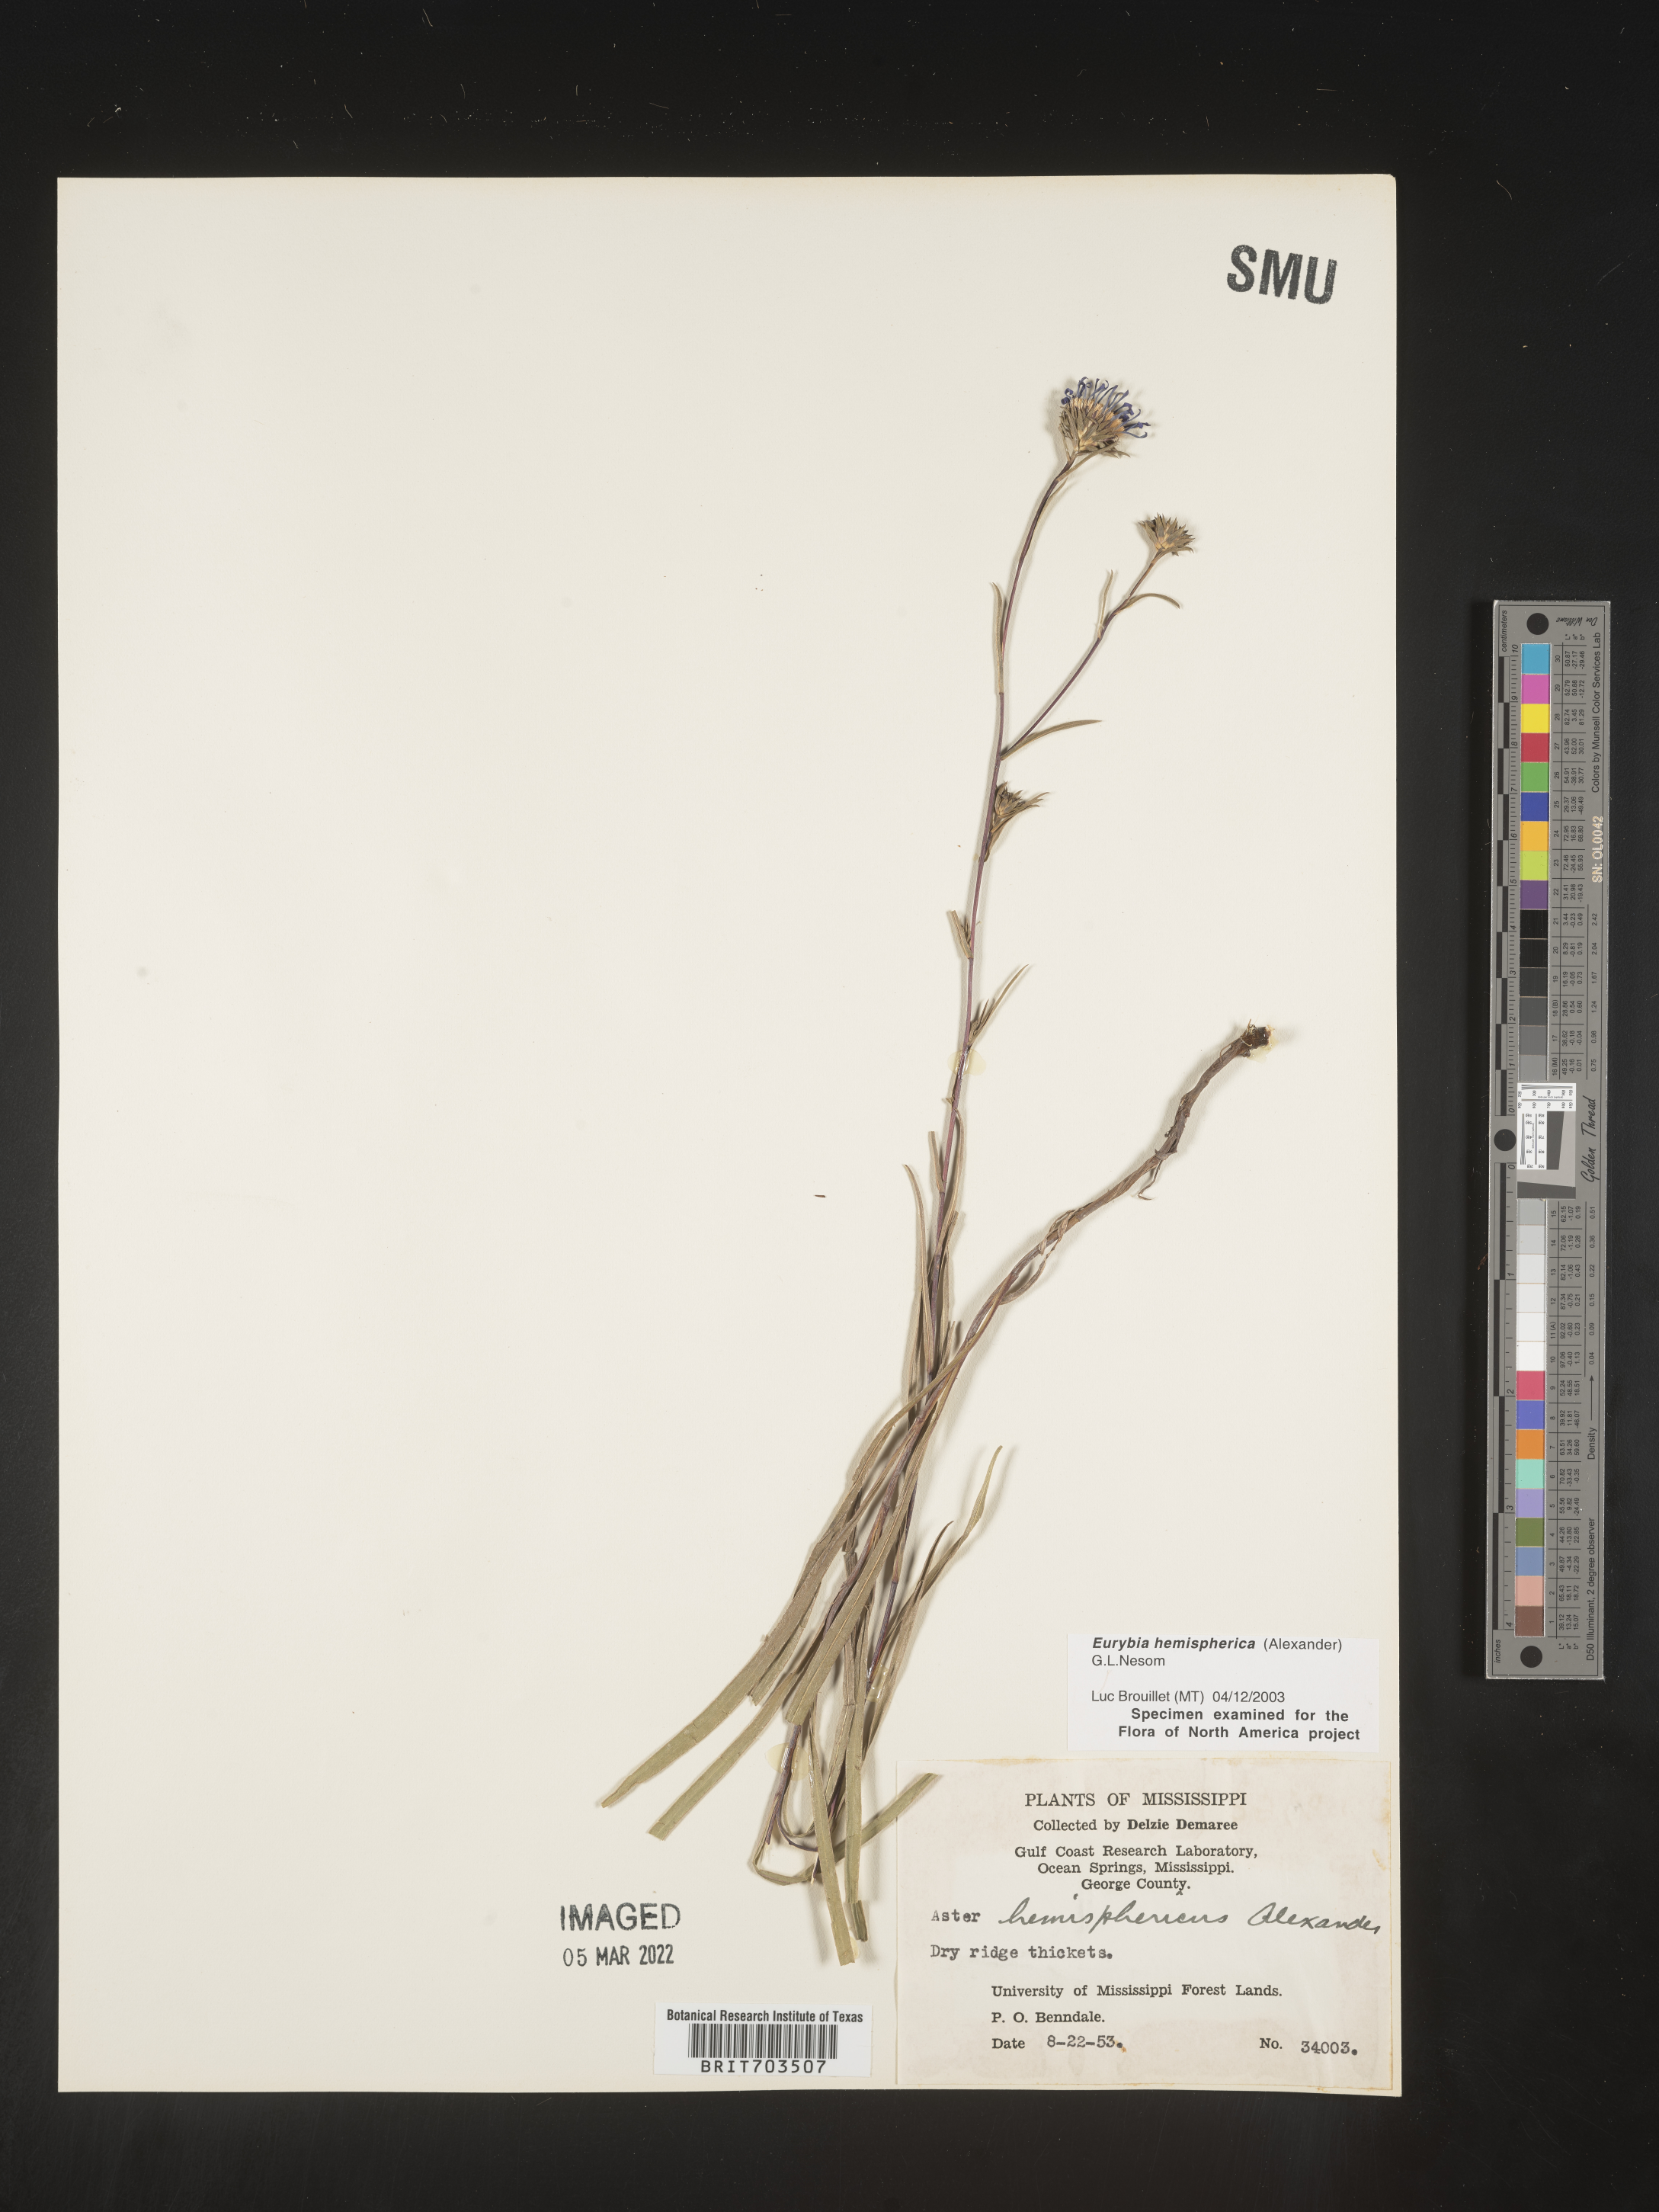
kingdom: Plantae
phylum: Tracheophyta
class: Magnoliopsida
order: Asterales
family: Asteraceae
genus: Eurybia
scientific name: Eurybia hemispherica
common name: Showy aster
